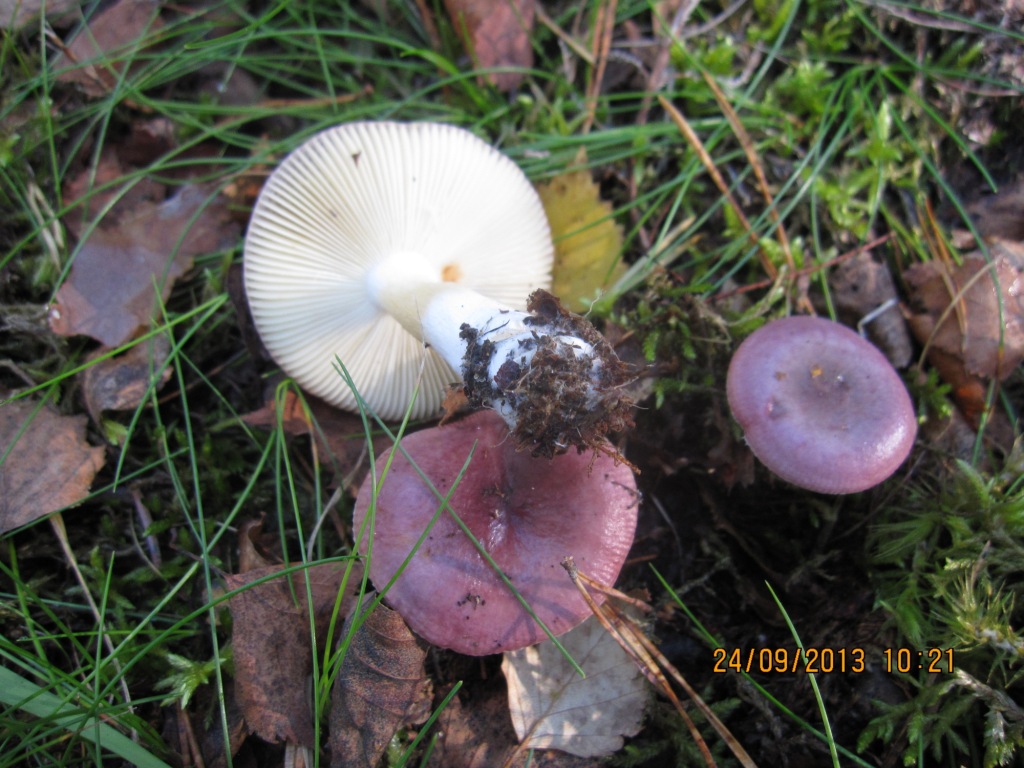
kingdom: Fungi
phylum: Basidiomycota
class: Agaricomycetes
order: Russulales
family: Russulaceae
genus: Russula
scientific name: Russula puellaris
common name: gulstokket skørhat
